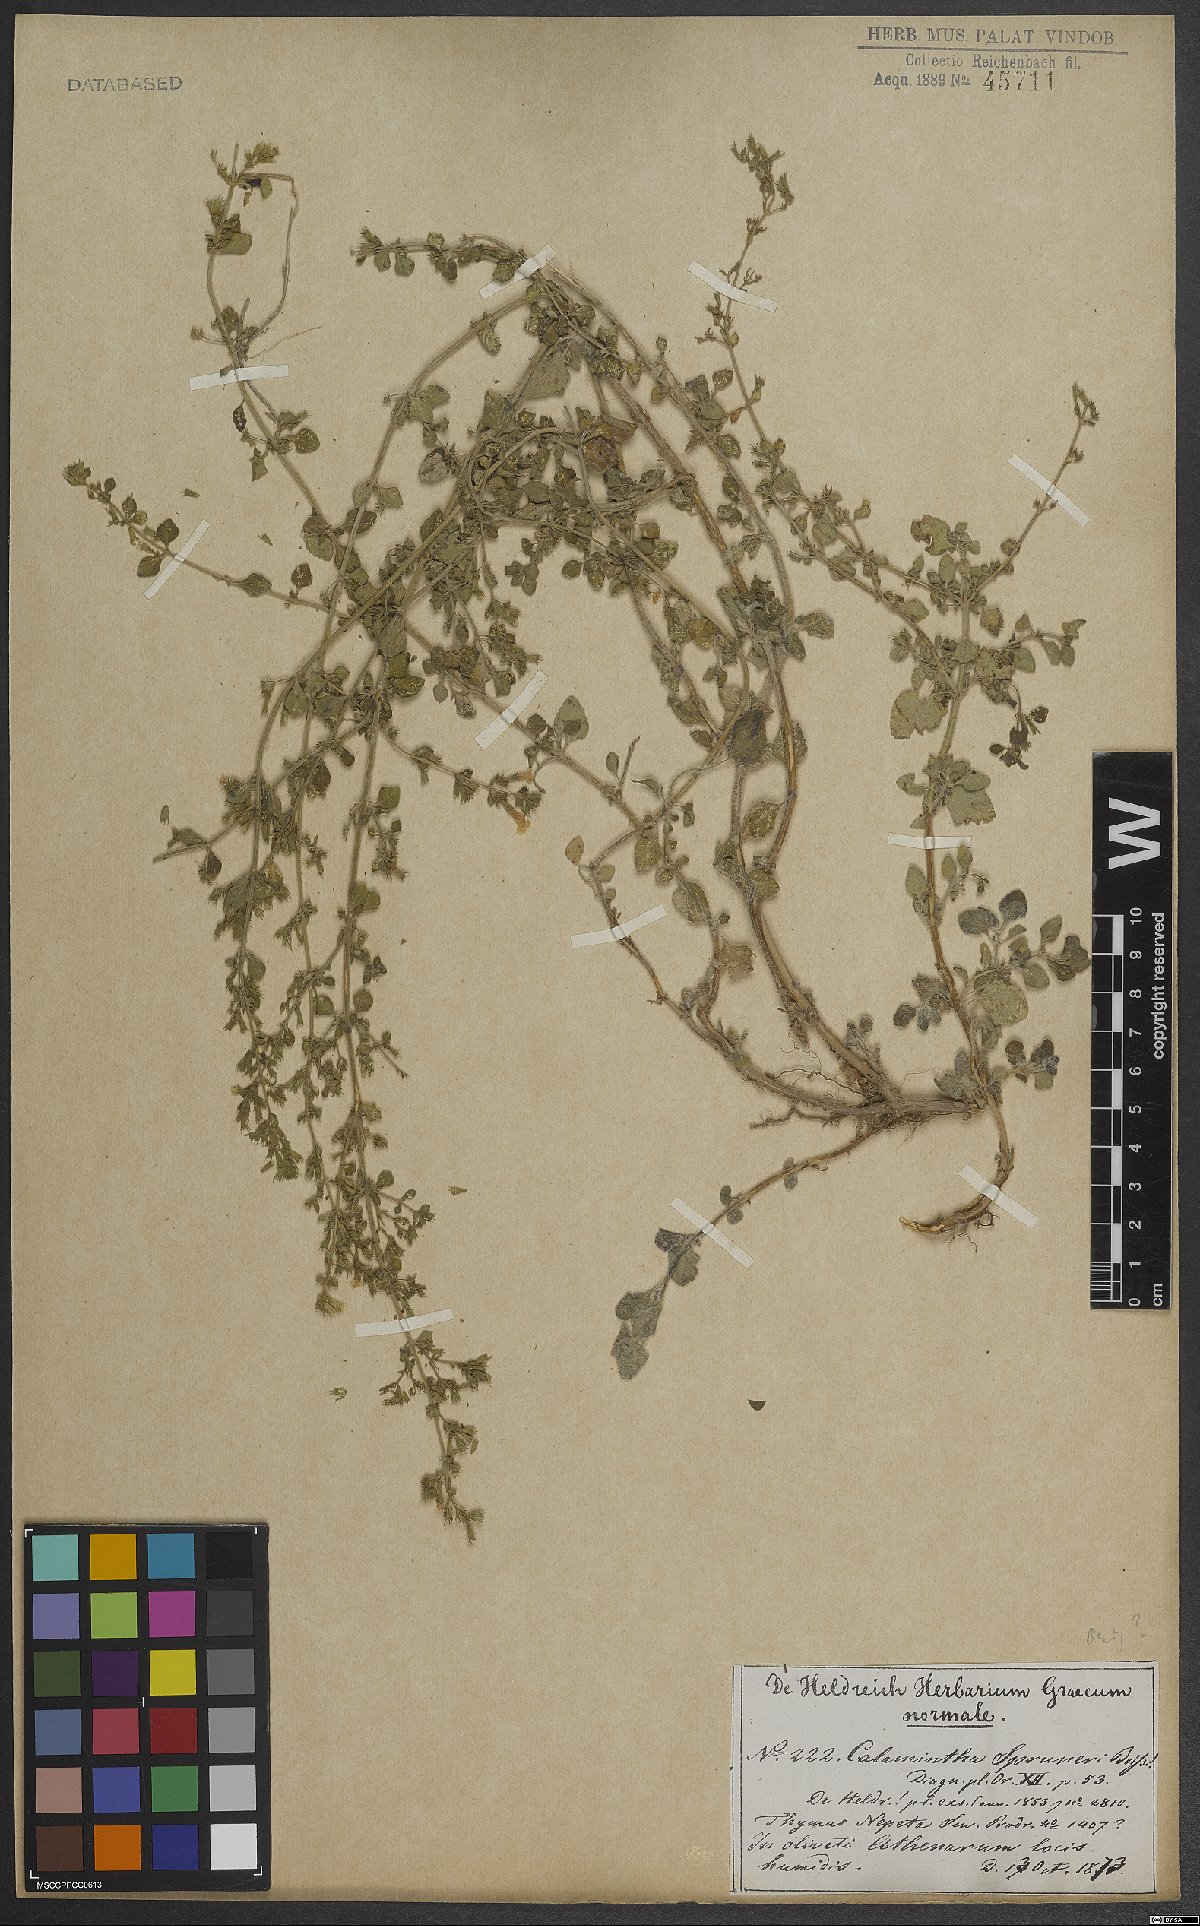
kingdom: Plantae
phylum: Tracheophyta
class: Magnoliopsida
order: Lamiales
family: Lamiaceae
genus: Clinopodium
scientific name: Clinopodium nepeta
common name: Lesser calamint
